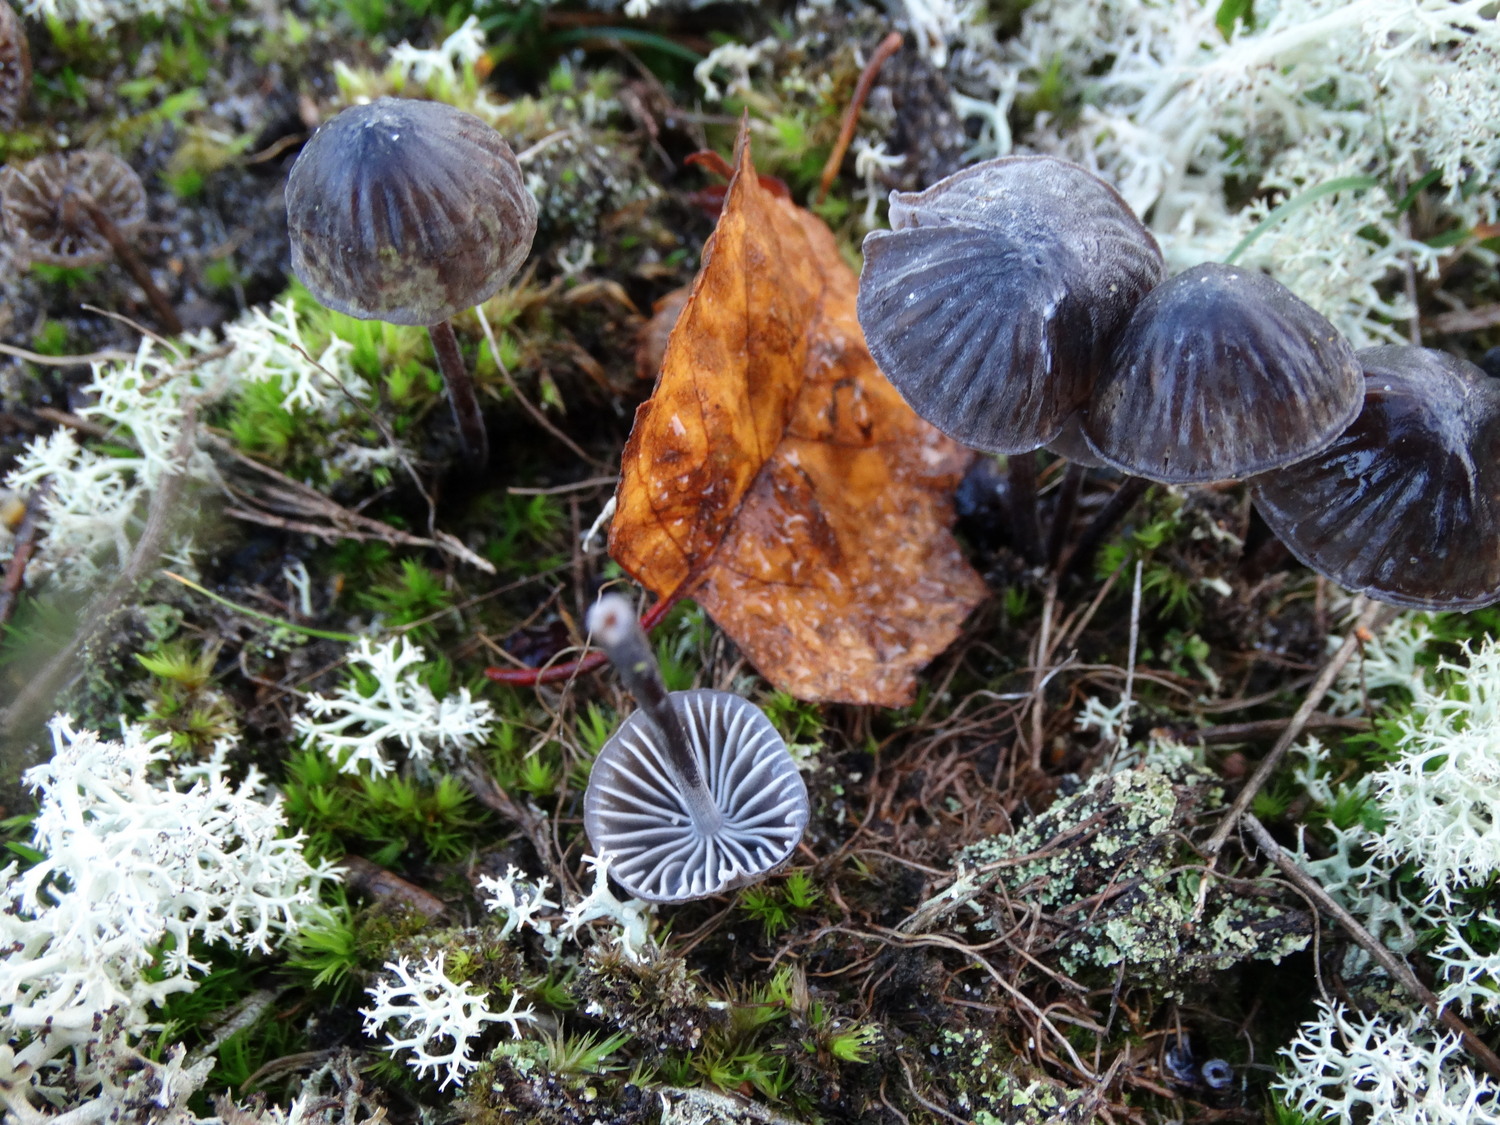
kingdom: Fungi
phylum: Basidiomycota
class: Agaricomycetes
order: Agaricales
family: Mycenaceae
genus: Mycena
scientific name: Mycena galopus
